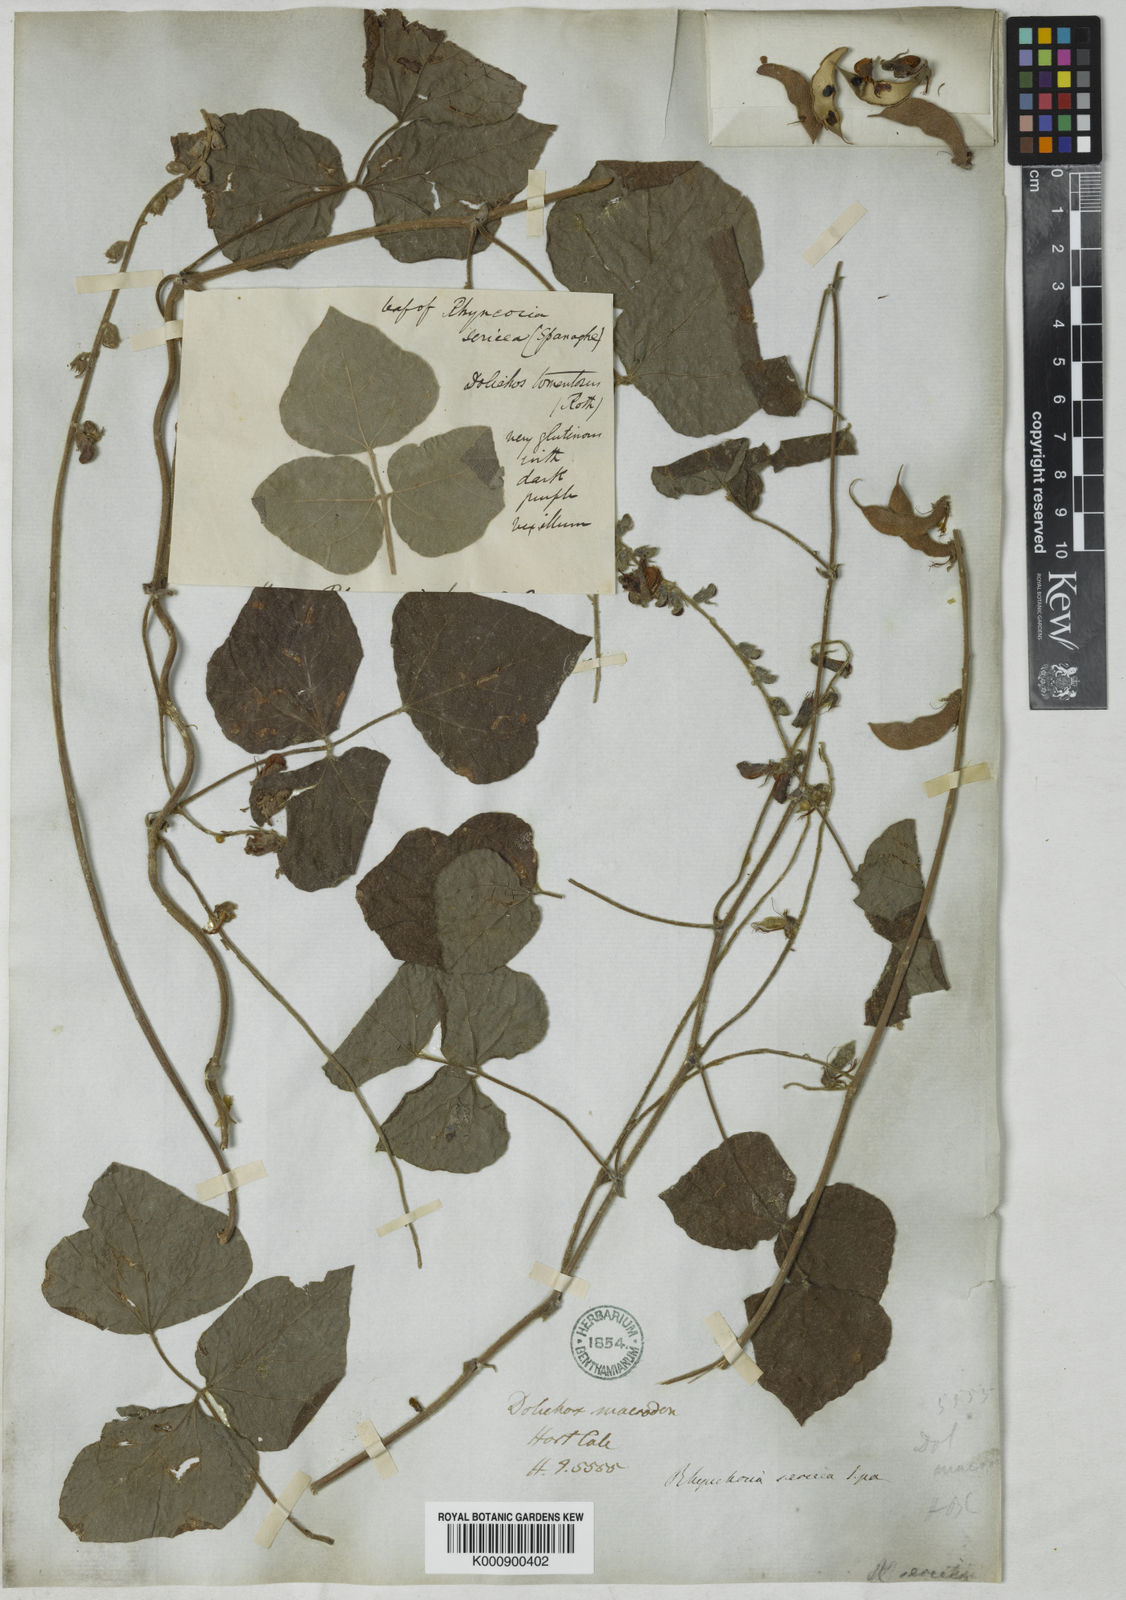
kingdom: Plantae
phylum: Tracheophyta
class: Magnoliopsida
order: Fabales
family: Fabaceae
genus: Rhynchosia
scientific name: Rhynchosia rothii
